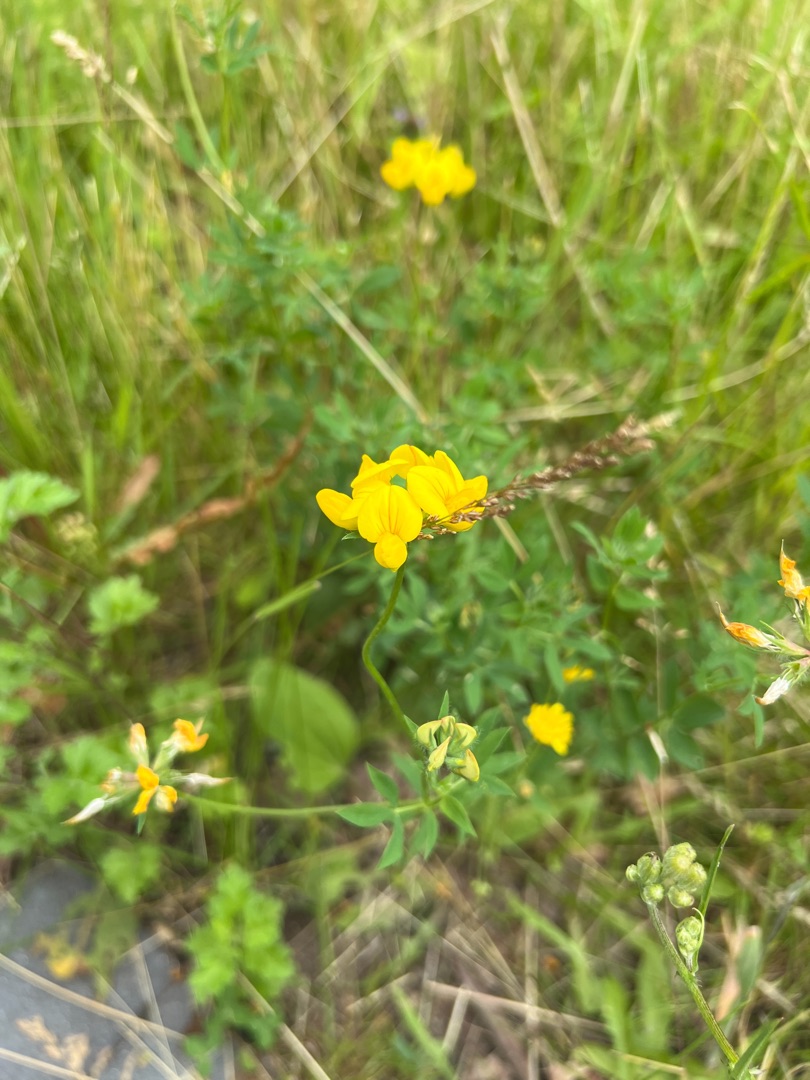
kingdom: Plantae
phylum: Tracheophyta
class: Magnoliopsida
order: Fabales
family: Fabaceae
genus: Lotus
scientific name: Lotus corniculatus
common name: Almindelig kællingetand
